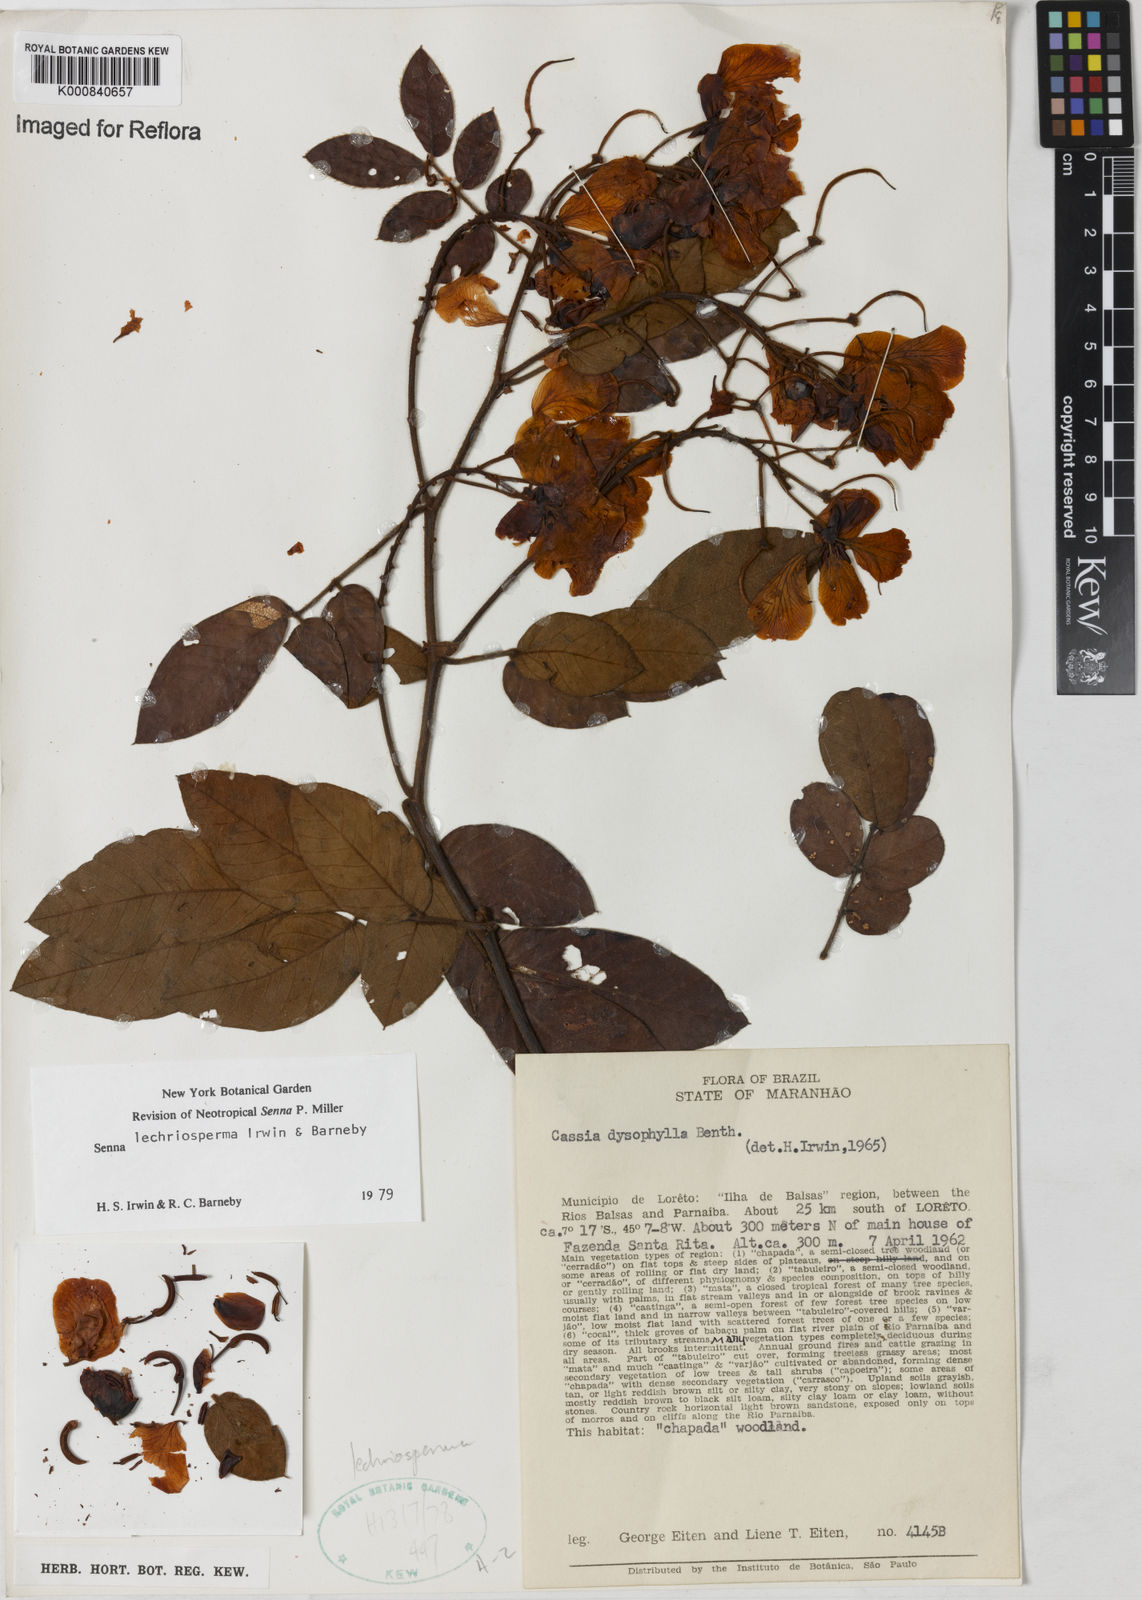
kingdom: Plantae
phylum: Tracheophyta
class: Magnoliopsida
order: Fabales
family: Fabaceae
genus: Senna
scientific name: Senna lechriosperma
